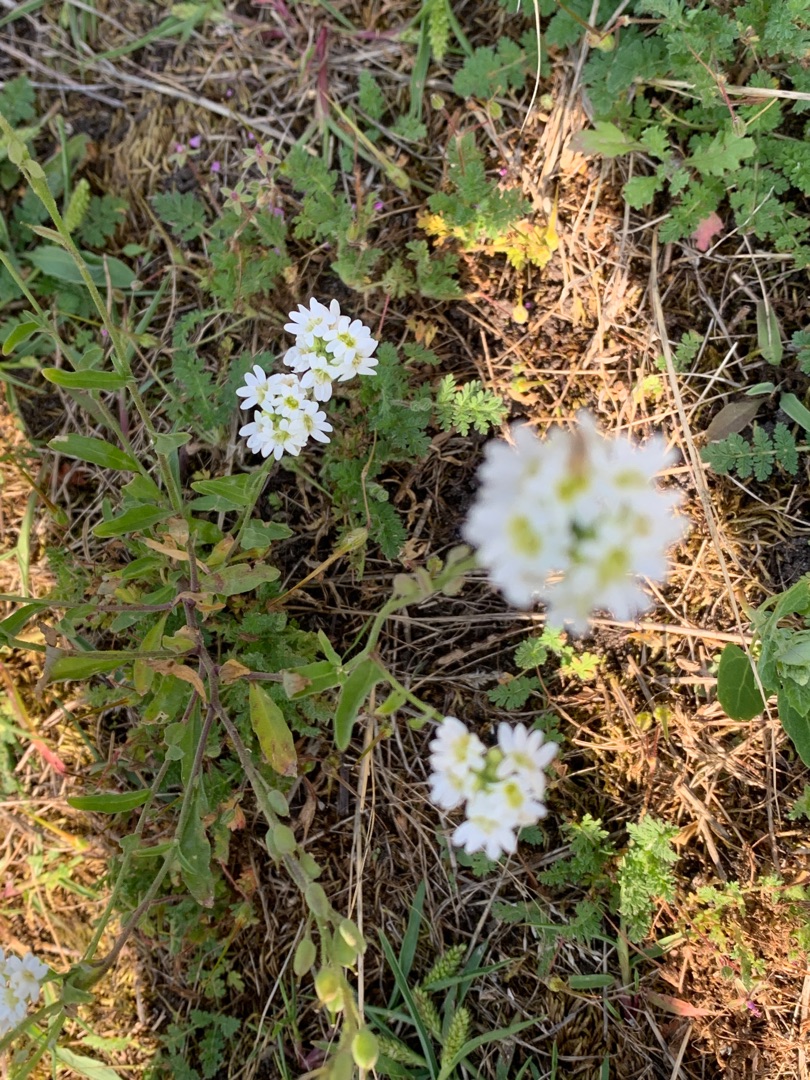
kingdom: Plantae
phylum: Tracheophyta
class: Magnoliopsida
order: Brassicales
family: Brassicaceae
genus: Berteroa
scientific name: Berteroa incana
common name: Kløvplade
